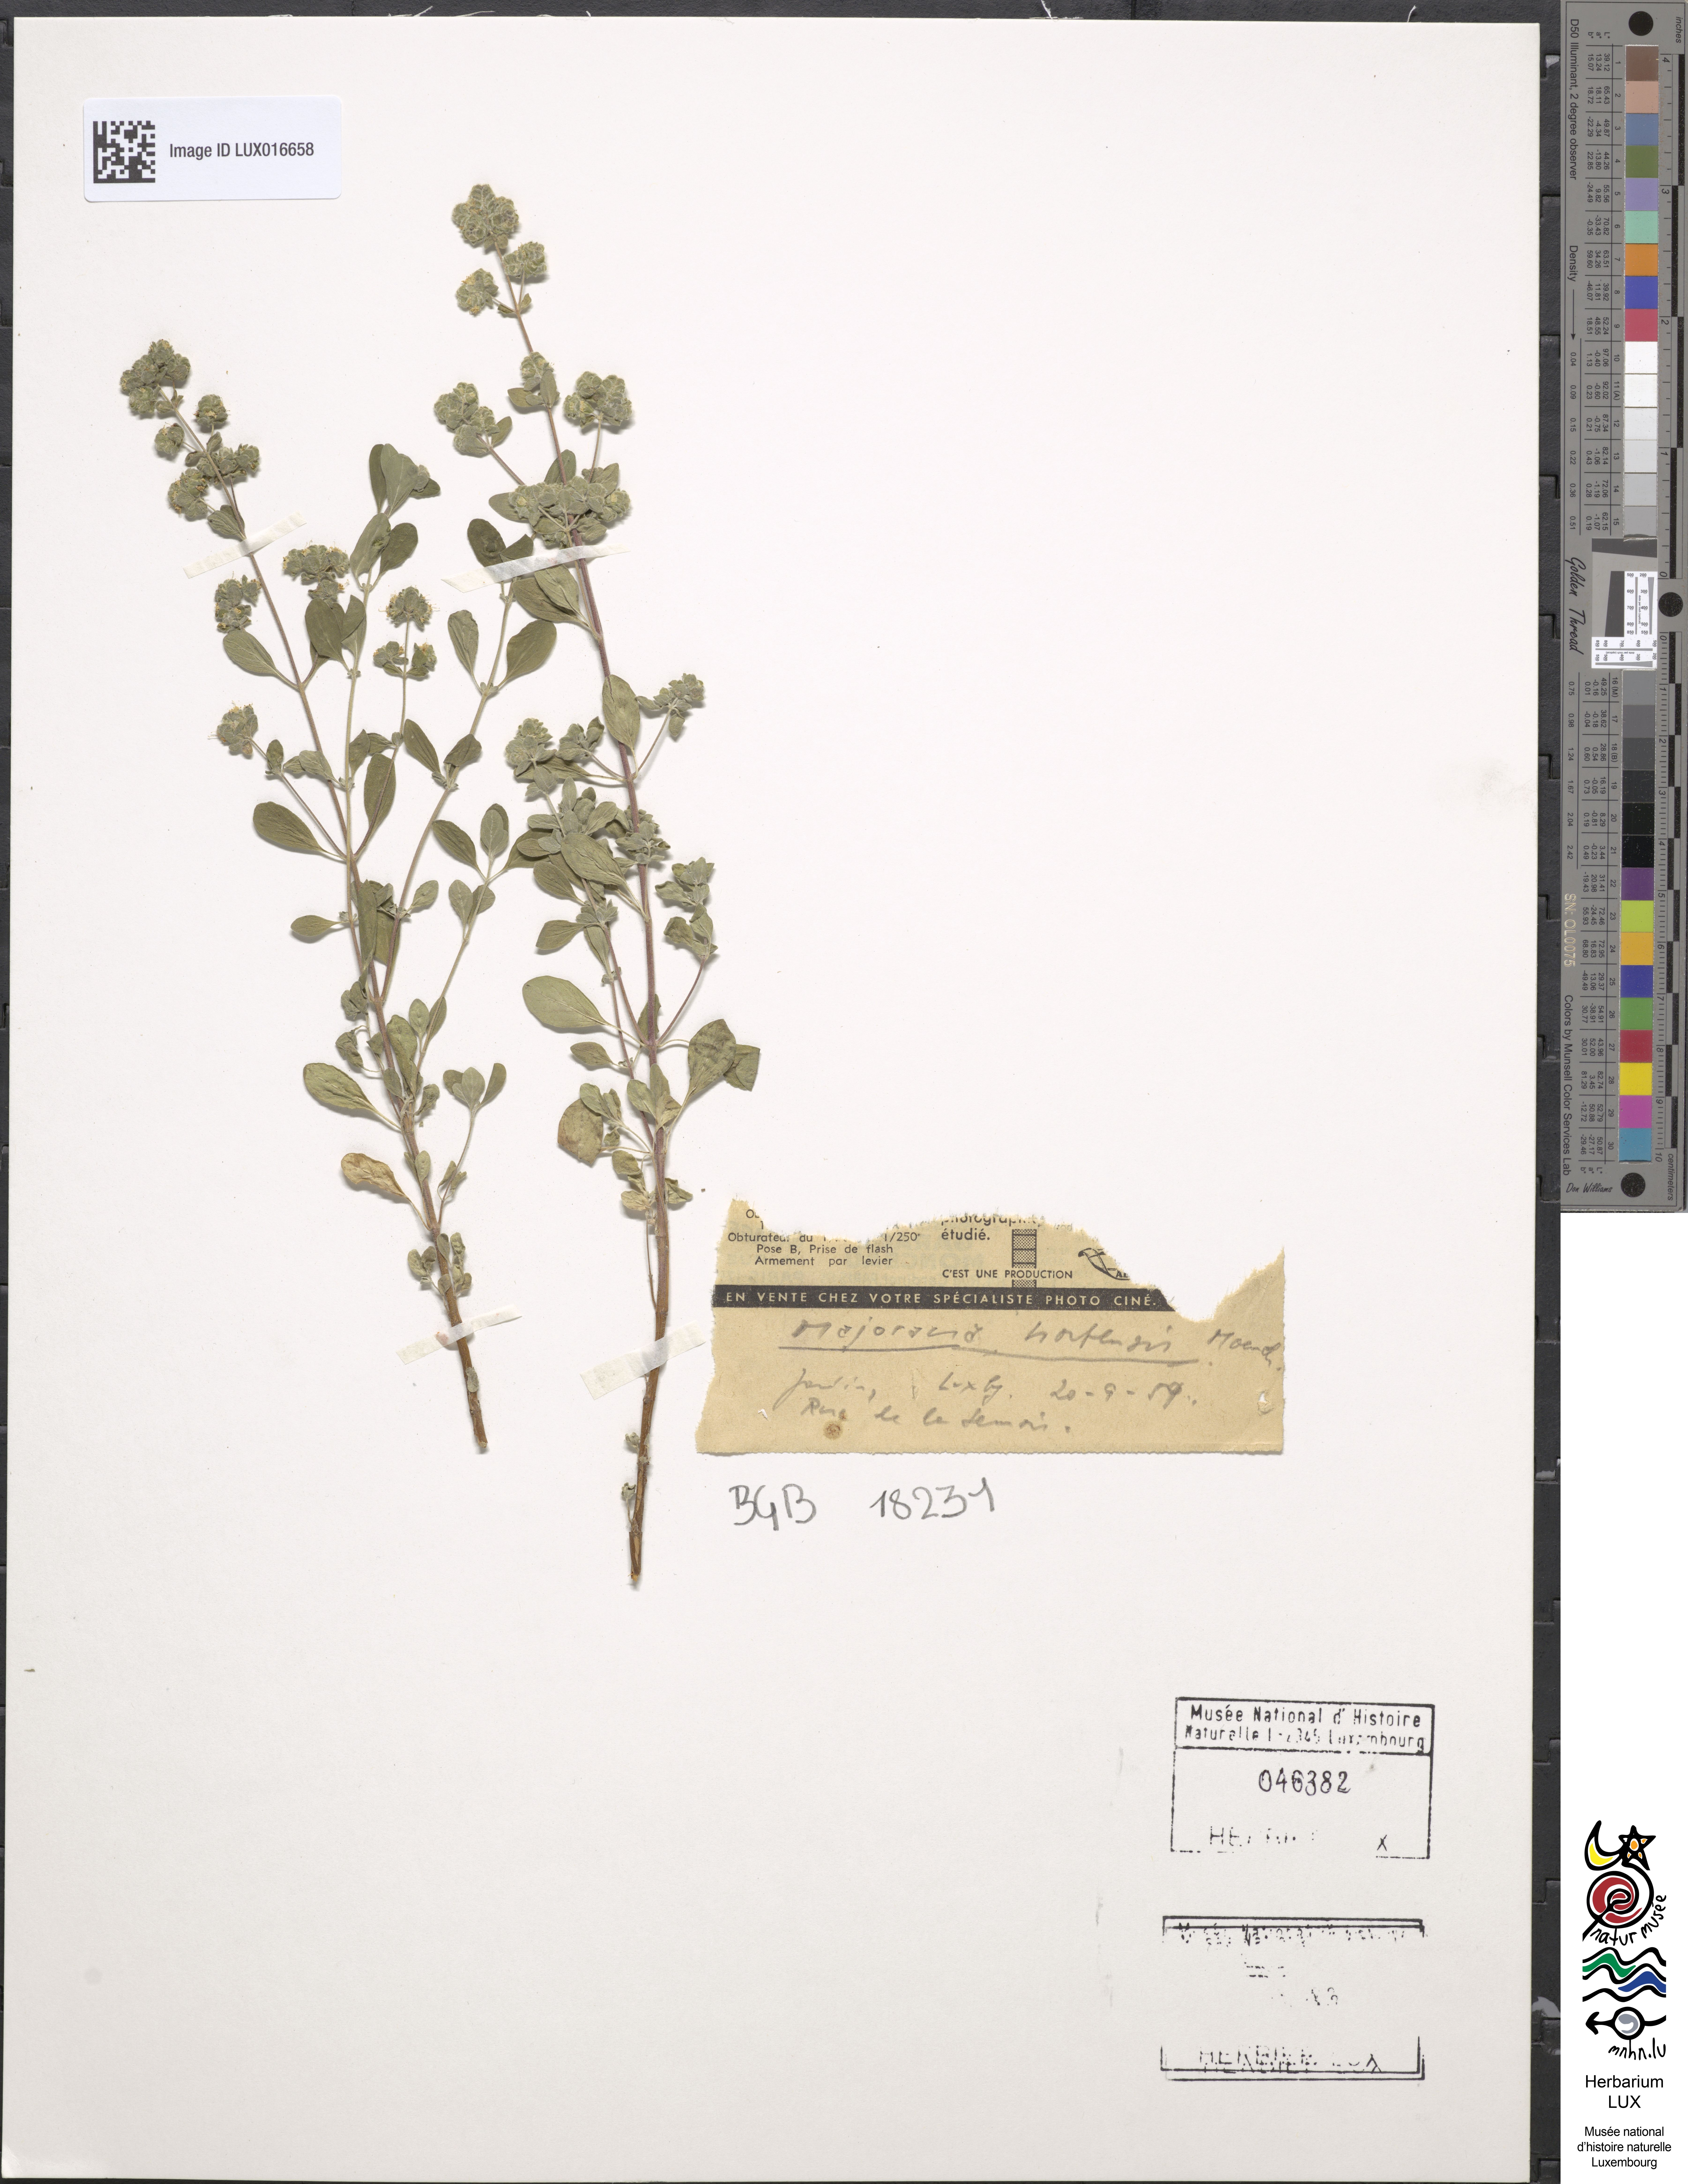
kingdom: Plantae
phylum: Tracheophyta
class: Magnoliopsida
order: Lamiales
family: Lamiaceae
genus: Origanum
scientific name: Origanum majorana
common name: Sweet marjoram
